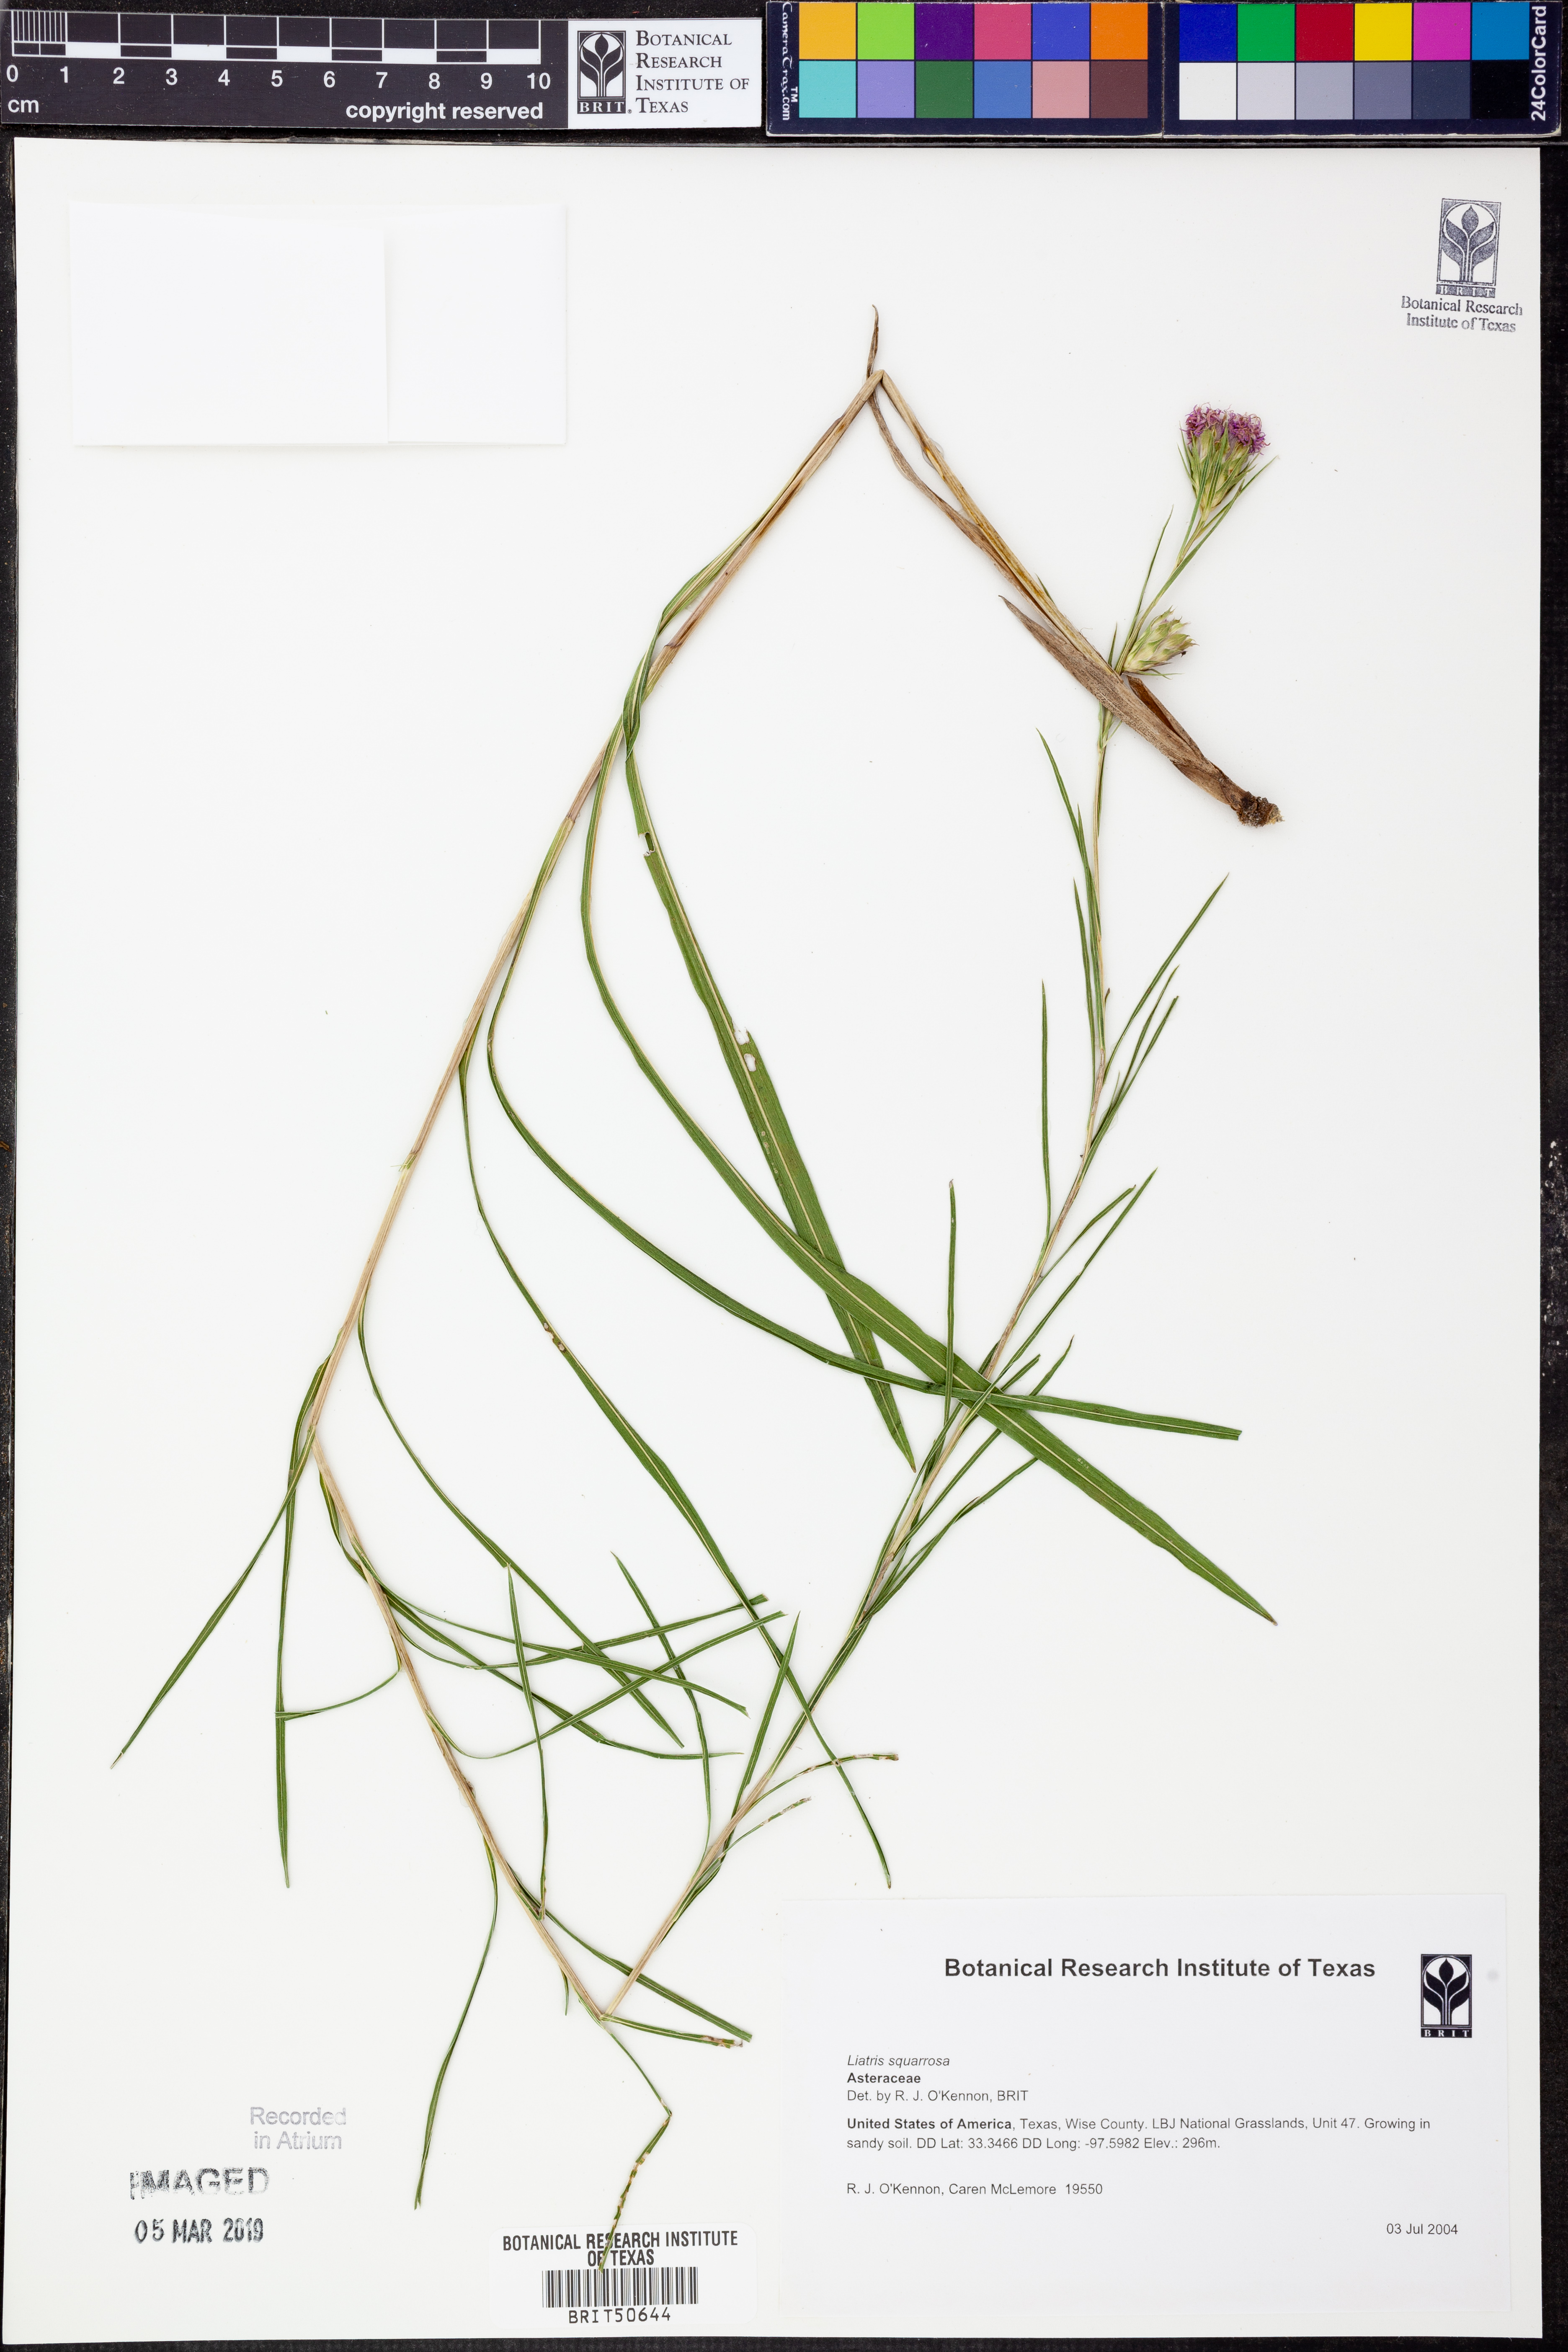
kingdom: Plantae
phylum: Tracheophyta
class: Magnoliopsida
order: Asterales
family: Asteraceae
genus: Liatris
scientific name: Liatris squarrosa
